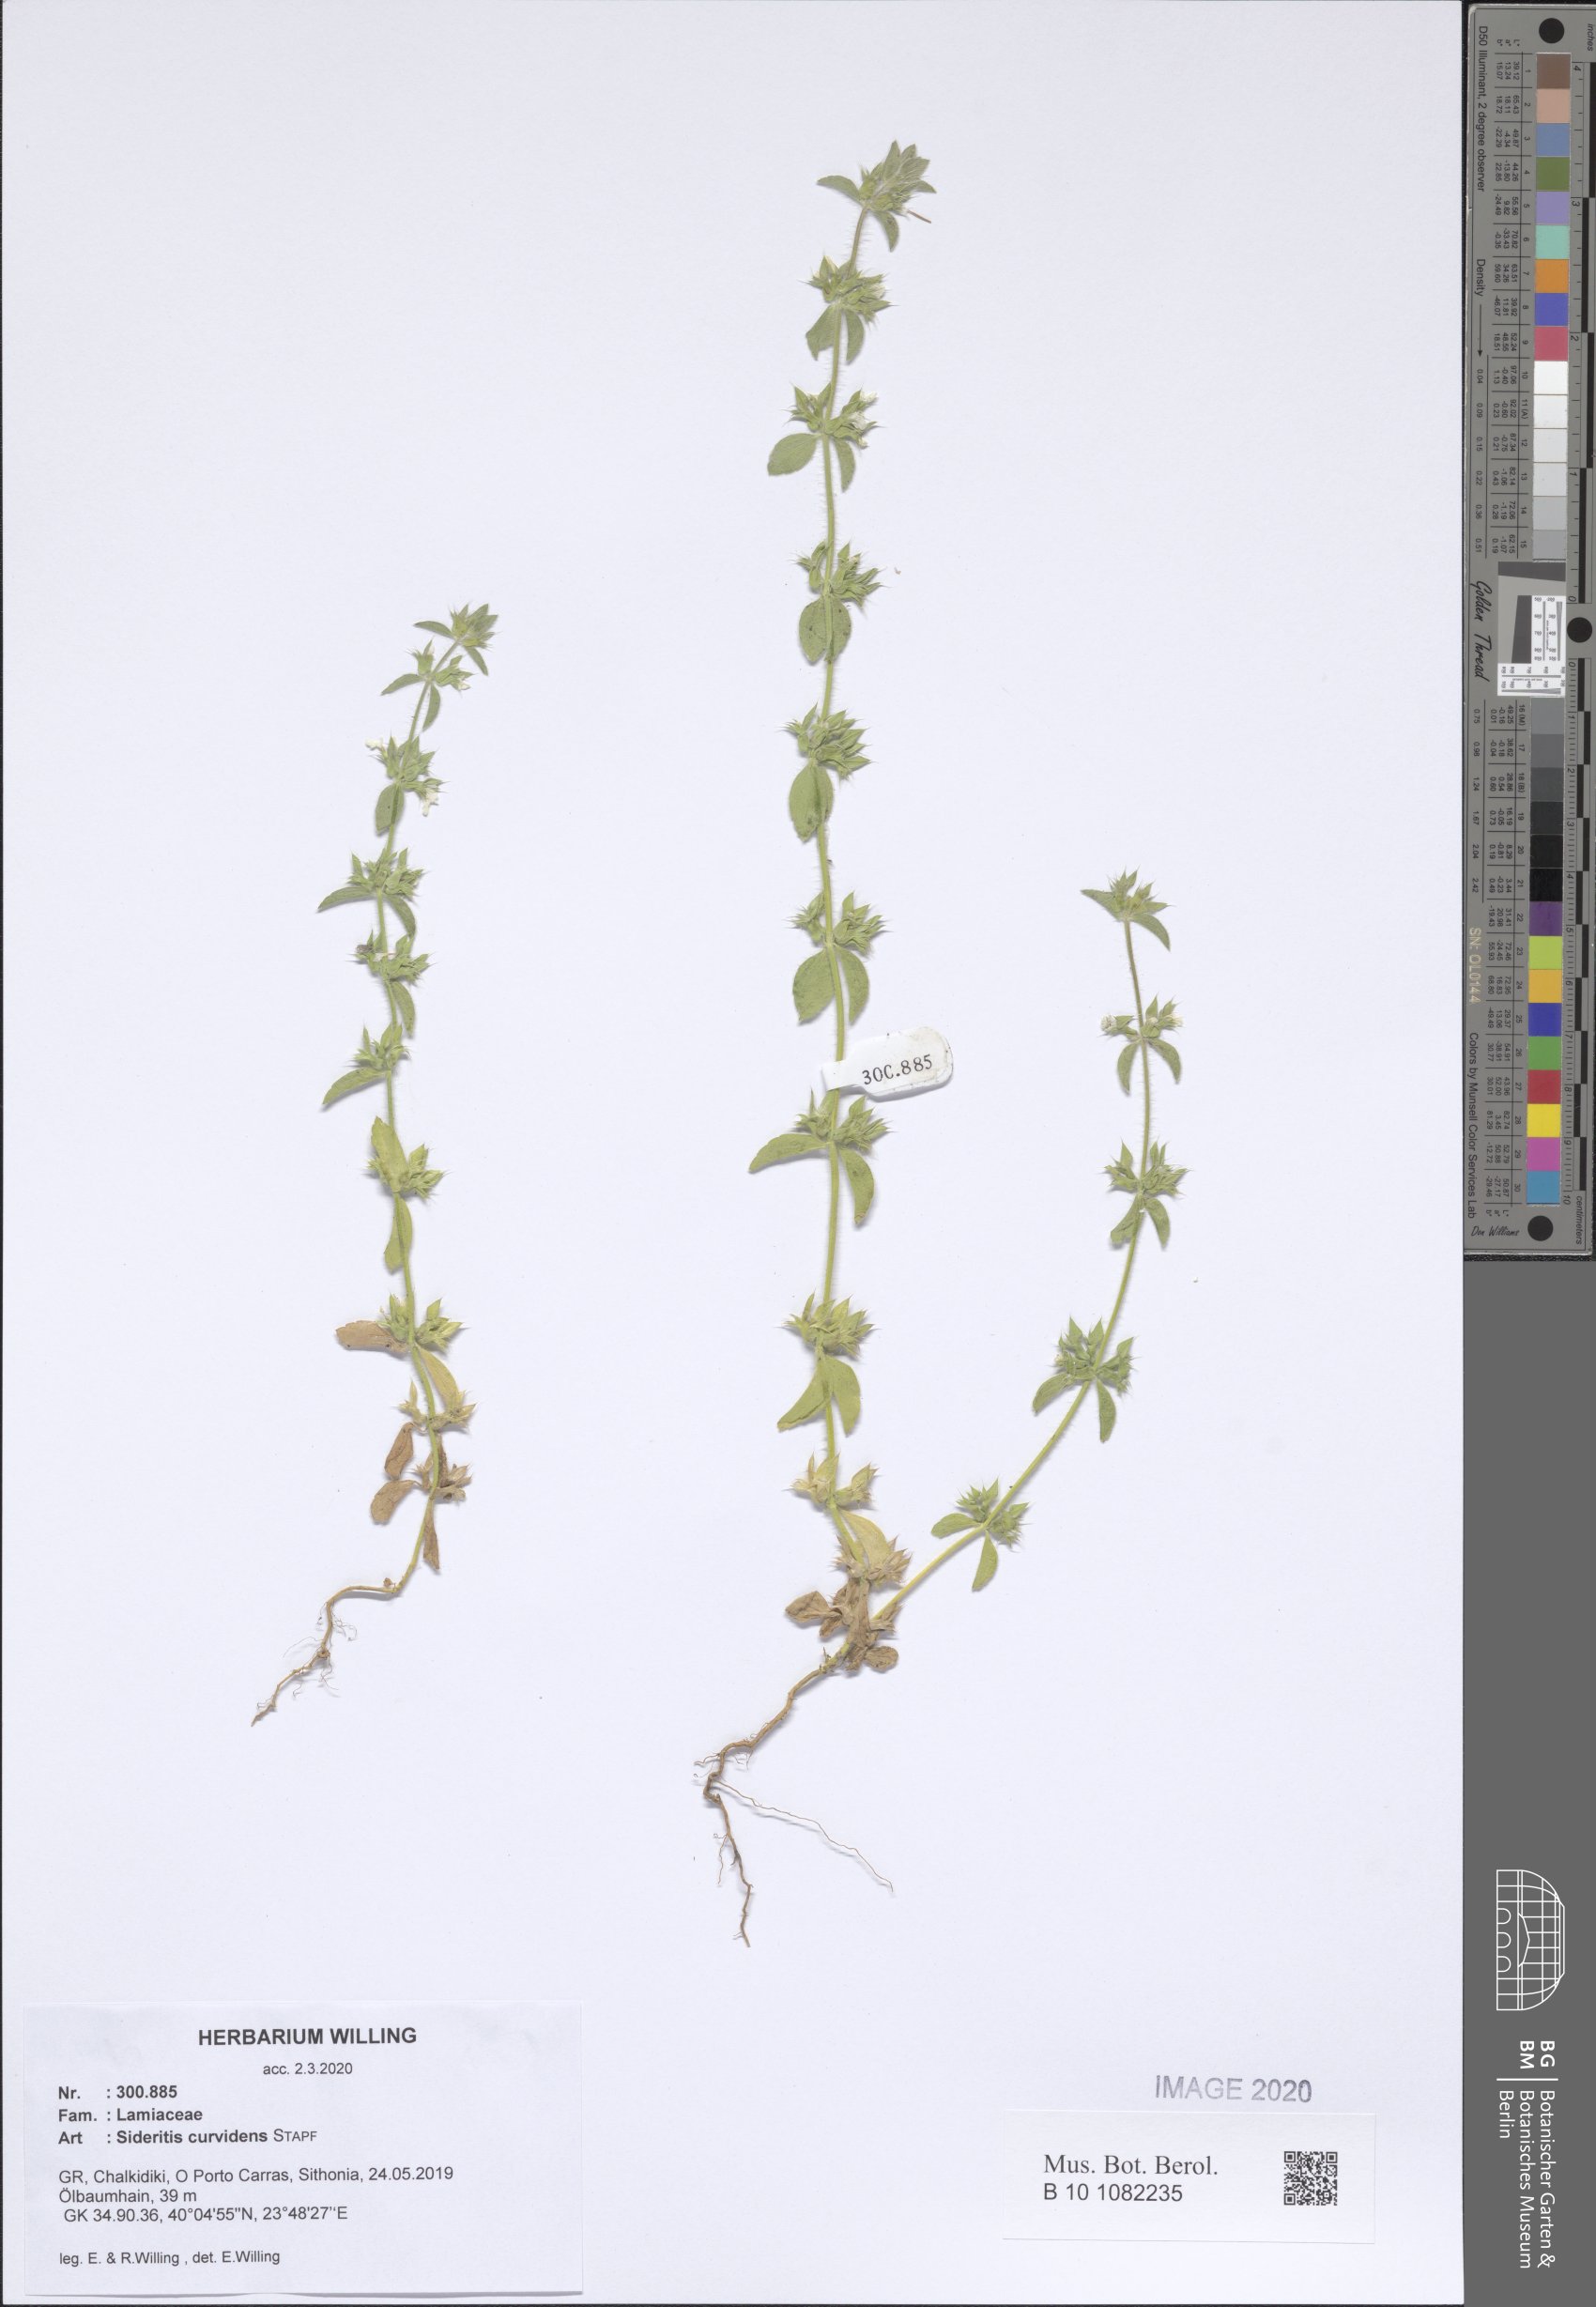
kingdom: Plantae
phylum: Tracheophyta
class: Magnoliopsida
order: Lamiales
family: Lamiaceae
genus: Sideritis
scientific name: Sideritis romana
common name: Simplebeak ironwort
